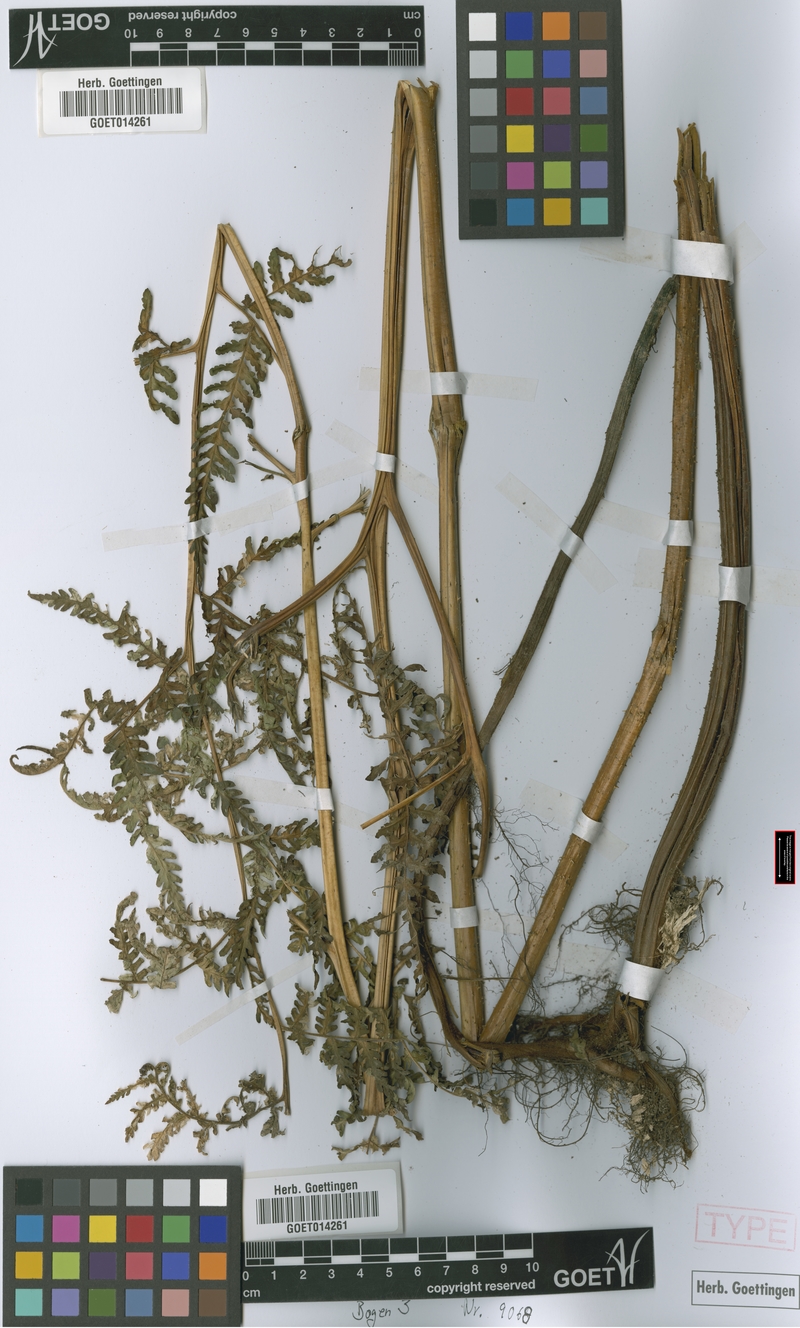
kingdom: Plantae
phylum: Tracheophyta
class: Polypodiopsida
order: Polypodiales
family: Dennstaedtiaceae
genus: Hypolepis
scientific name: Hypolepis scandens
